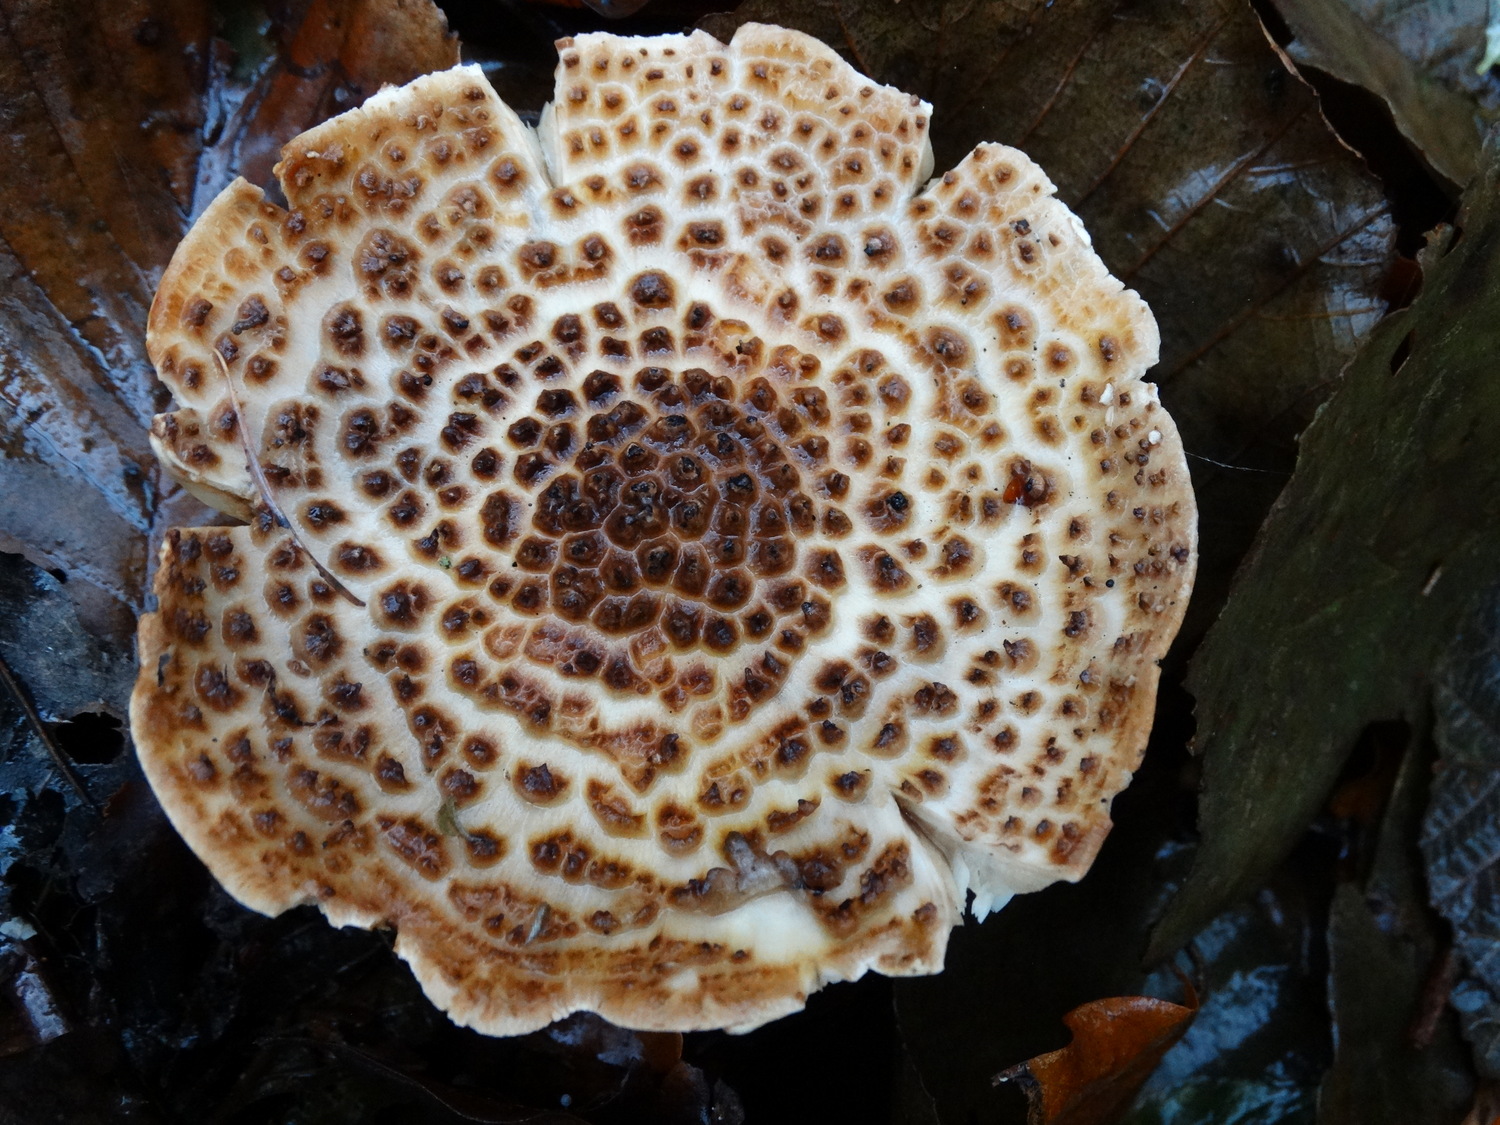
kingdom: Fungi
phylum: Basidiomycota
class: Agaricomycetes
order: Agaricales
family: Agaricaceae
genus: Echinoderma
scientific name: Echinoderma asperum
